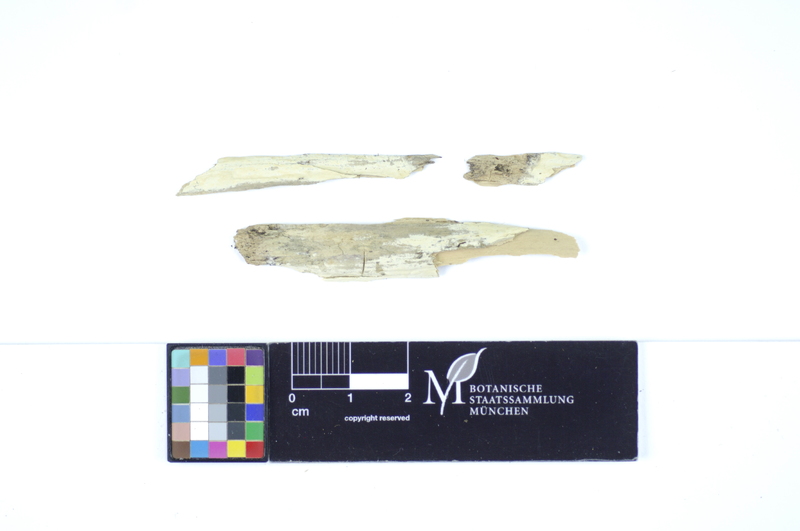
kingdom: Plantae
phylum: Tracheophyta
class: Pinopsida
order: Pinales
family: Pinaceae
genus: Picea
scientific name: Picea
